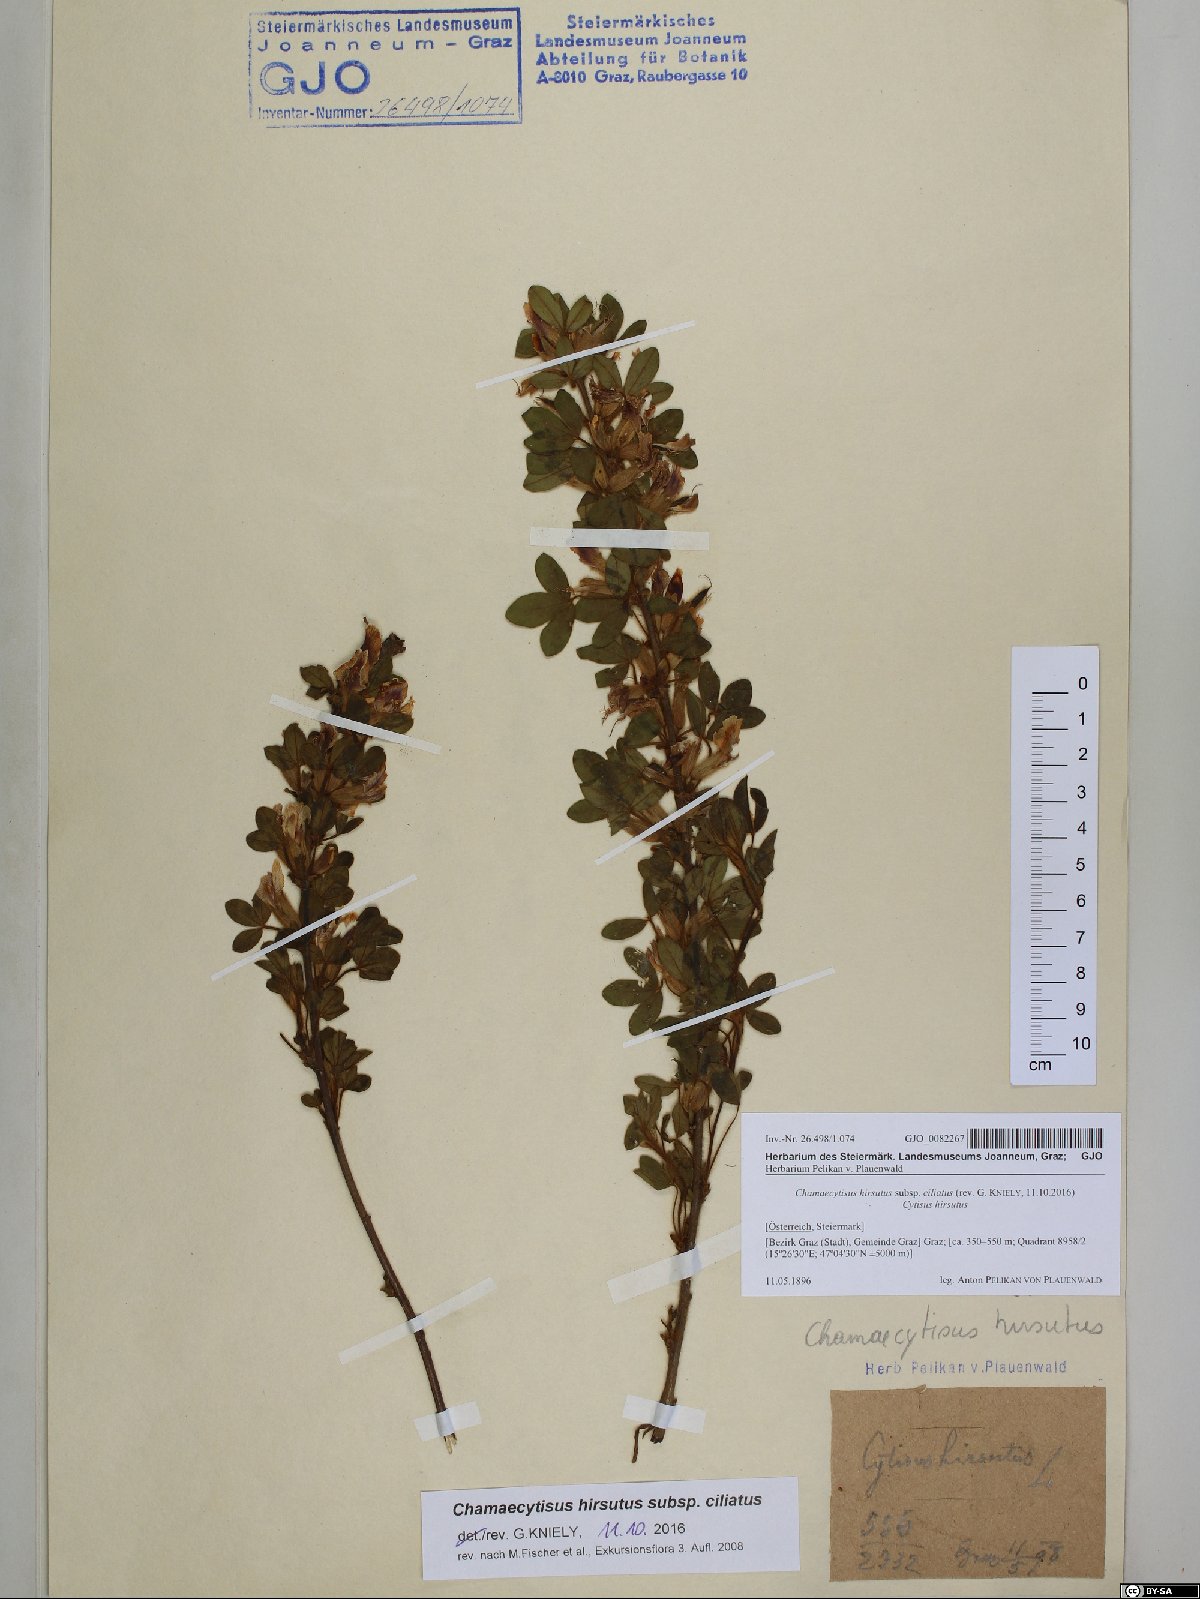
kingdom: Plantae
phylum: Tracheophyta
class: Magnoliopsida
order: Fabales
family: Fabaceae
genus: Chamaecytisus
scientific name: Chamaecytisus hirsutus
